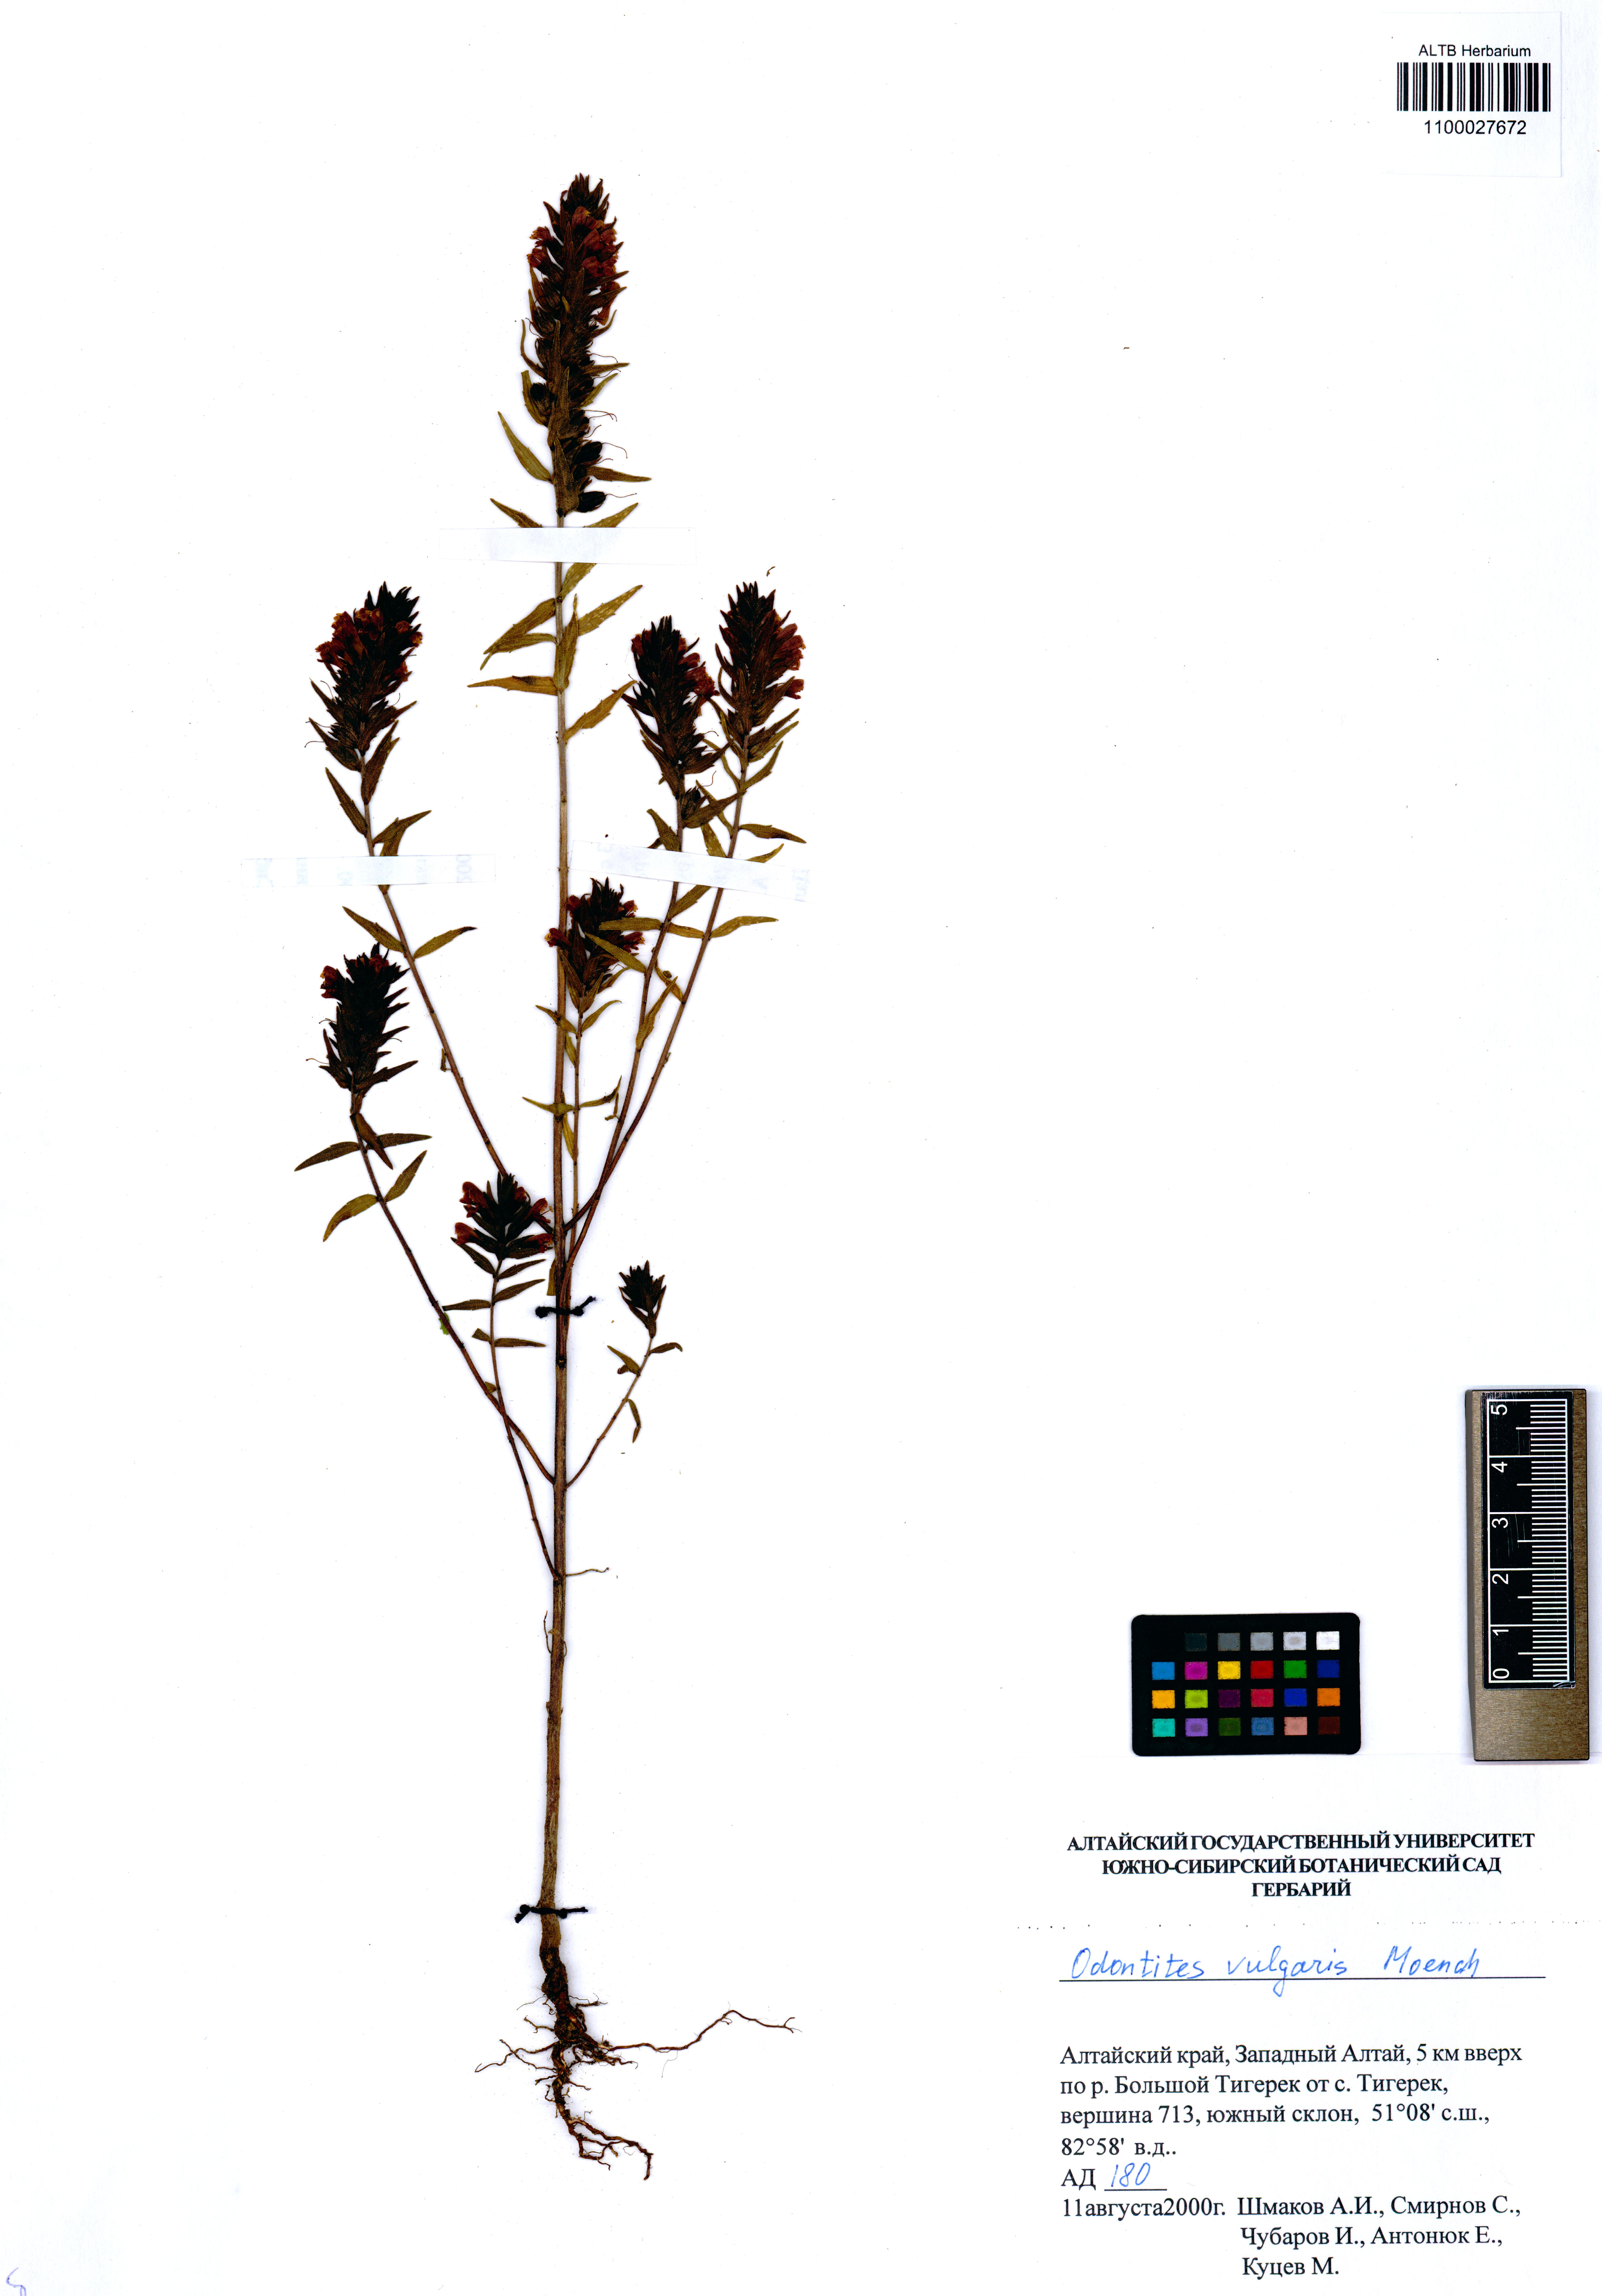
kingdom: Plantae
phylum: Tracheophyta
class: Magnoliopsida
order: Lamiales
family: Orobanchaceae
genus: Odontites
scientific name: Odontites vulgaris
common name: Broomrape
